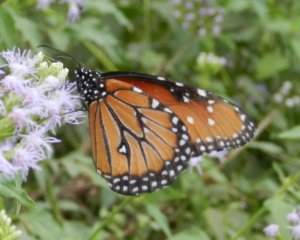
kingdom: Animalia
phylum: Arthropoda
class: Insecta
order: Lepidoptera
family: Nymphalidae
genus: Danaus
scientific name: Danaus gilippus
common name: Queen
